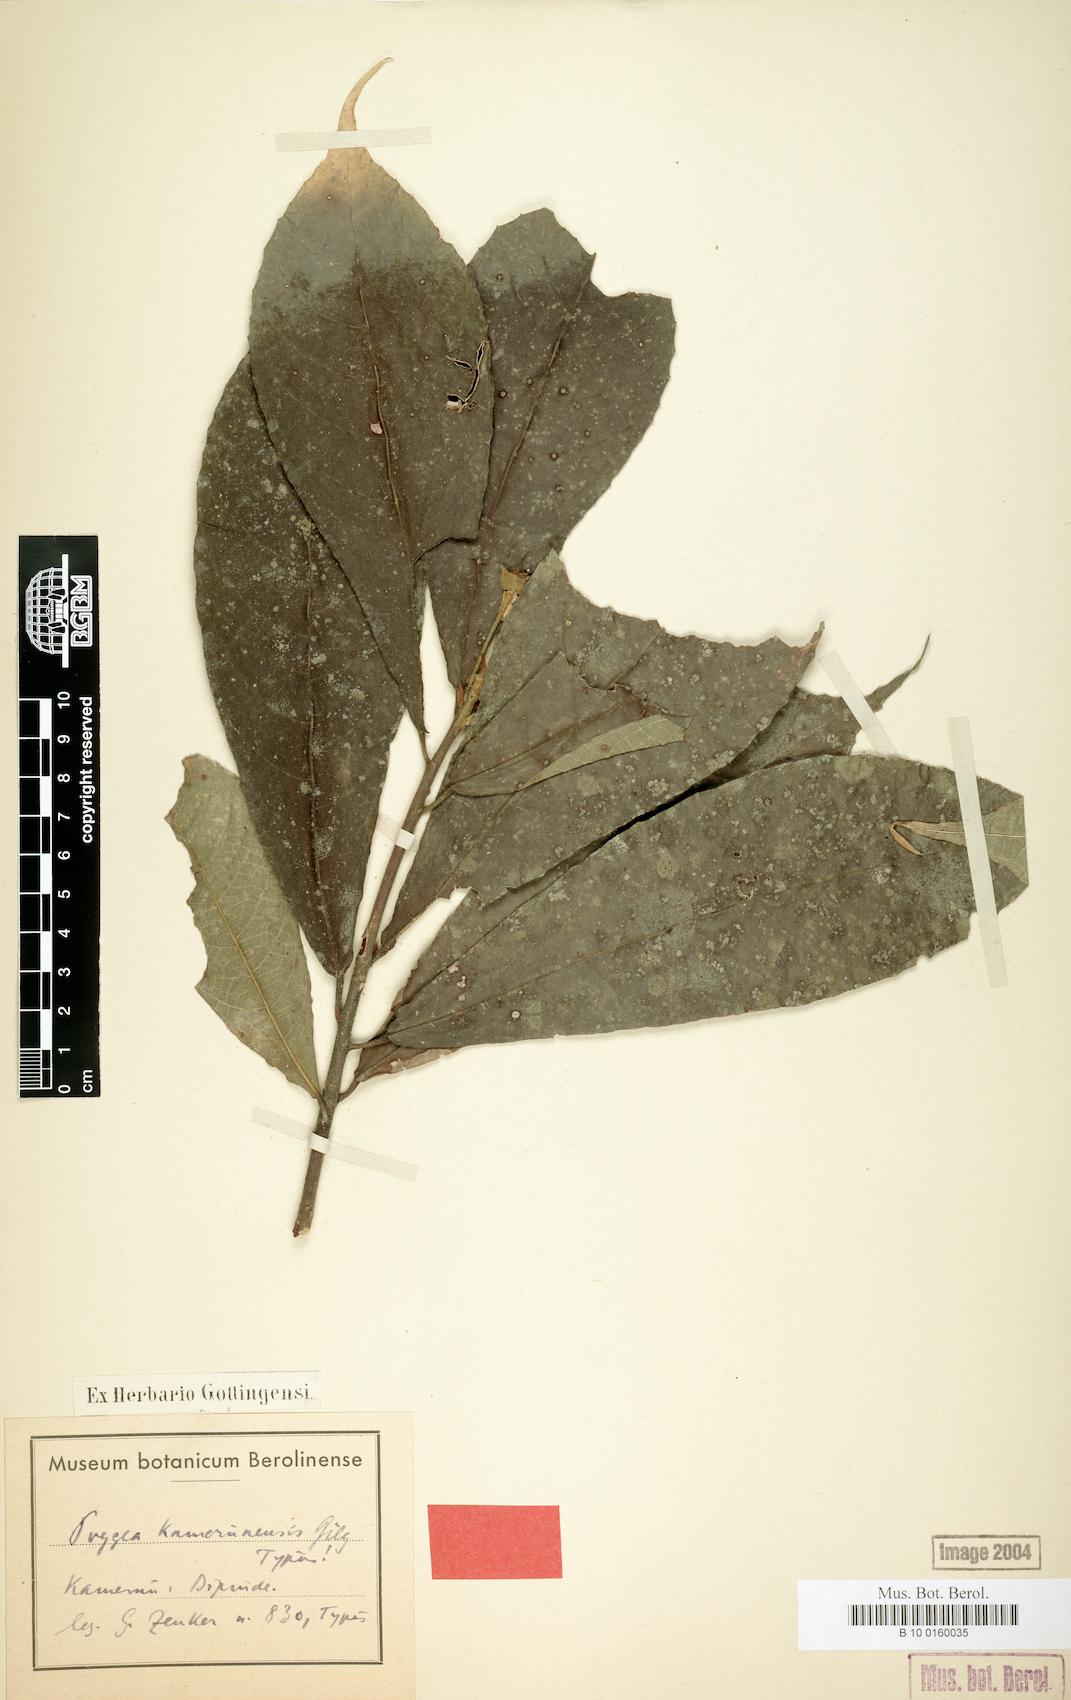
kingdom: Plantae
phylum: Tracheophyta
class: Magnoliopsida
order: Malpighiales
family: Achariaceae
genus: Poggea
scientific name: Poggea alata
